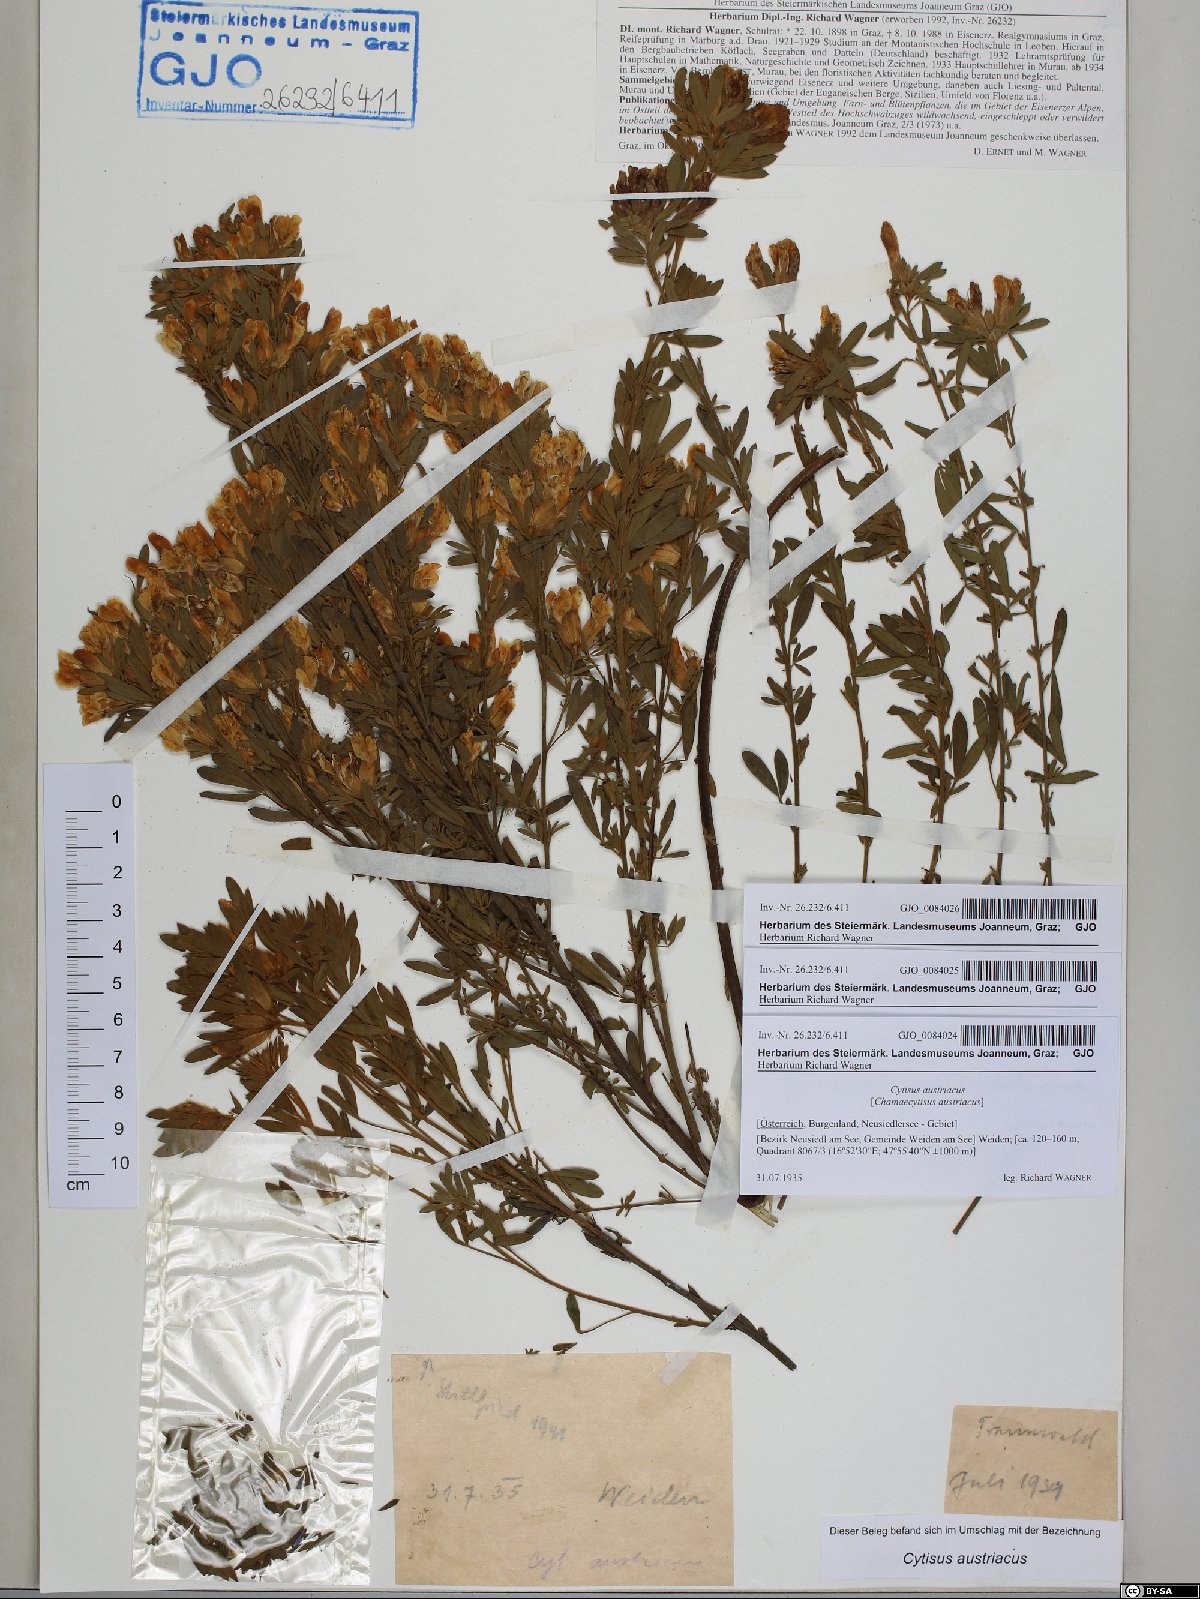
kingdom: Plantae
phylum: Tracheophyta
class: Magnoliopsida
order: Fabales
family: Fabaceae
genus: Chamaecytisus
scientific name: Chamaecytisus austriacus
